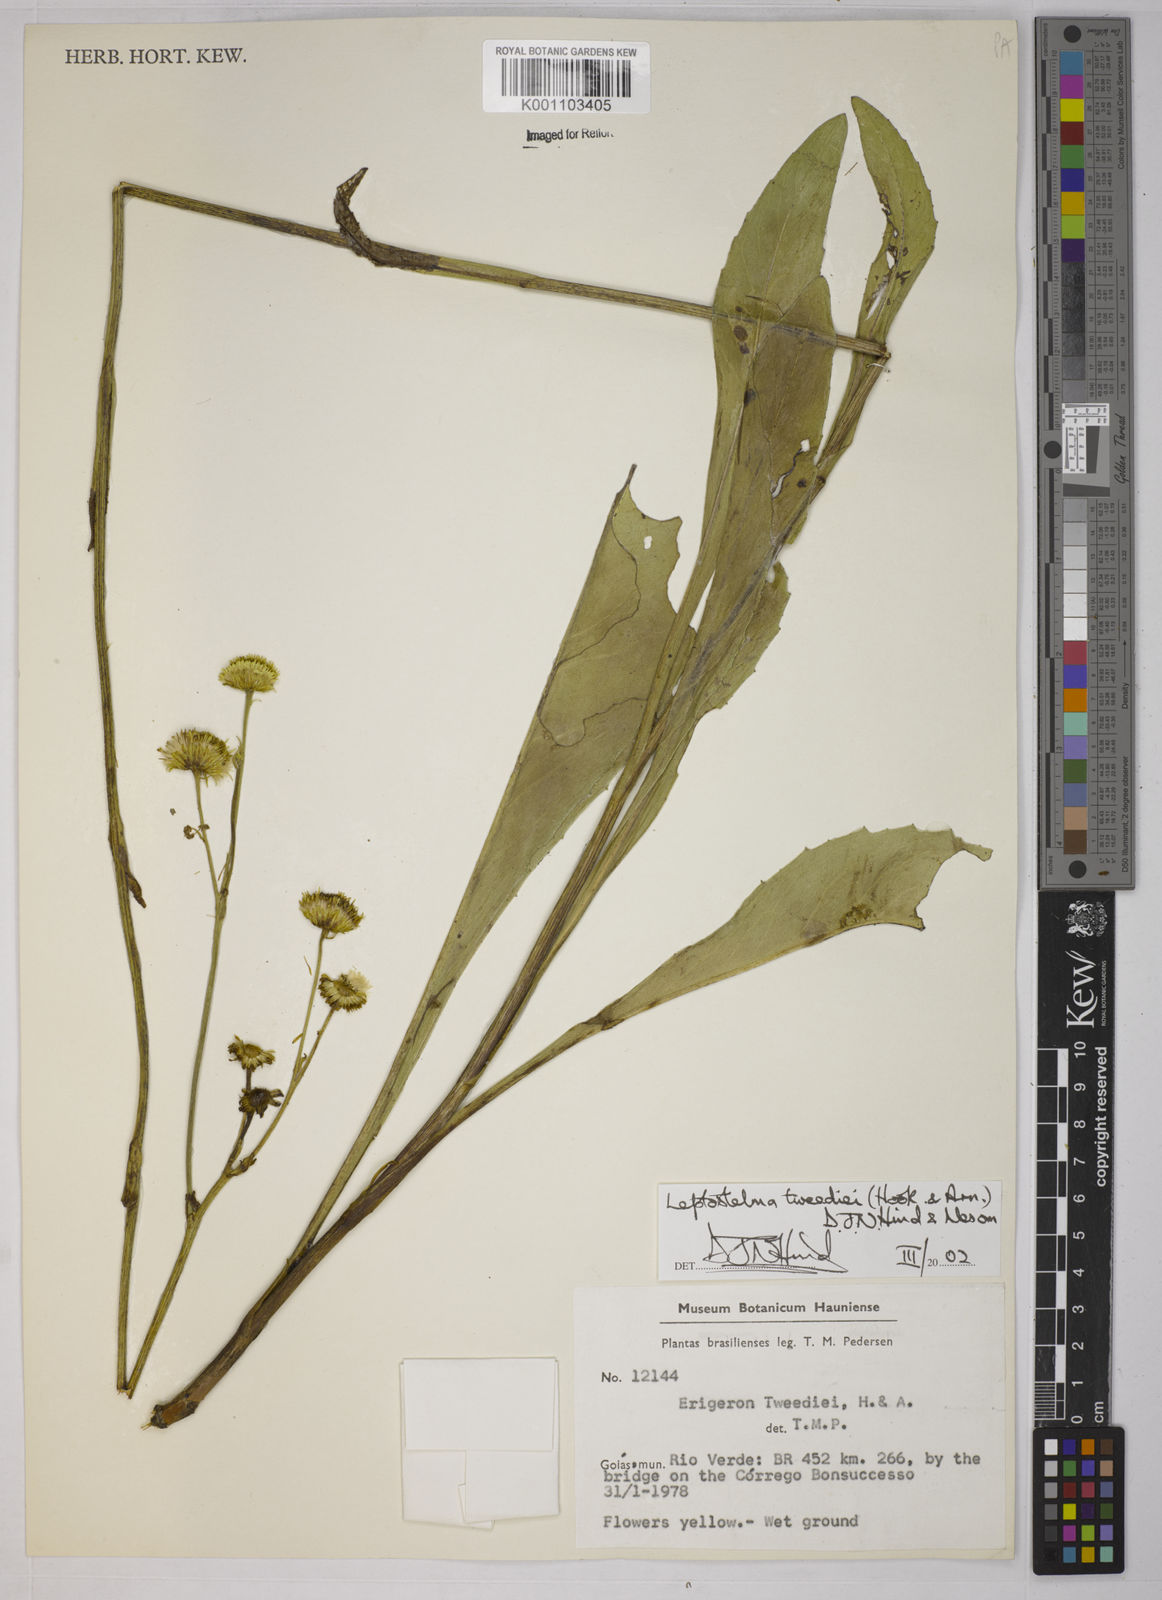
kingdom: Plantae
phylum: Tracheophyta
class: Magnoliopsida
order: Asterales
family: Asteraceae
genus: Leptostelma
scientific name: Leptostelma tweediei
